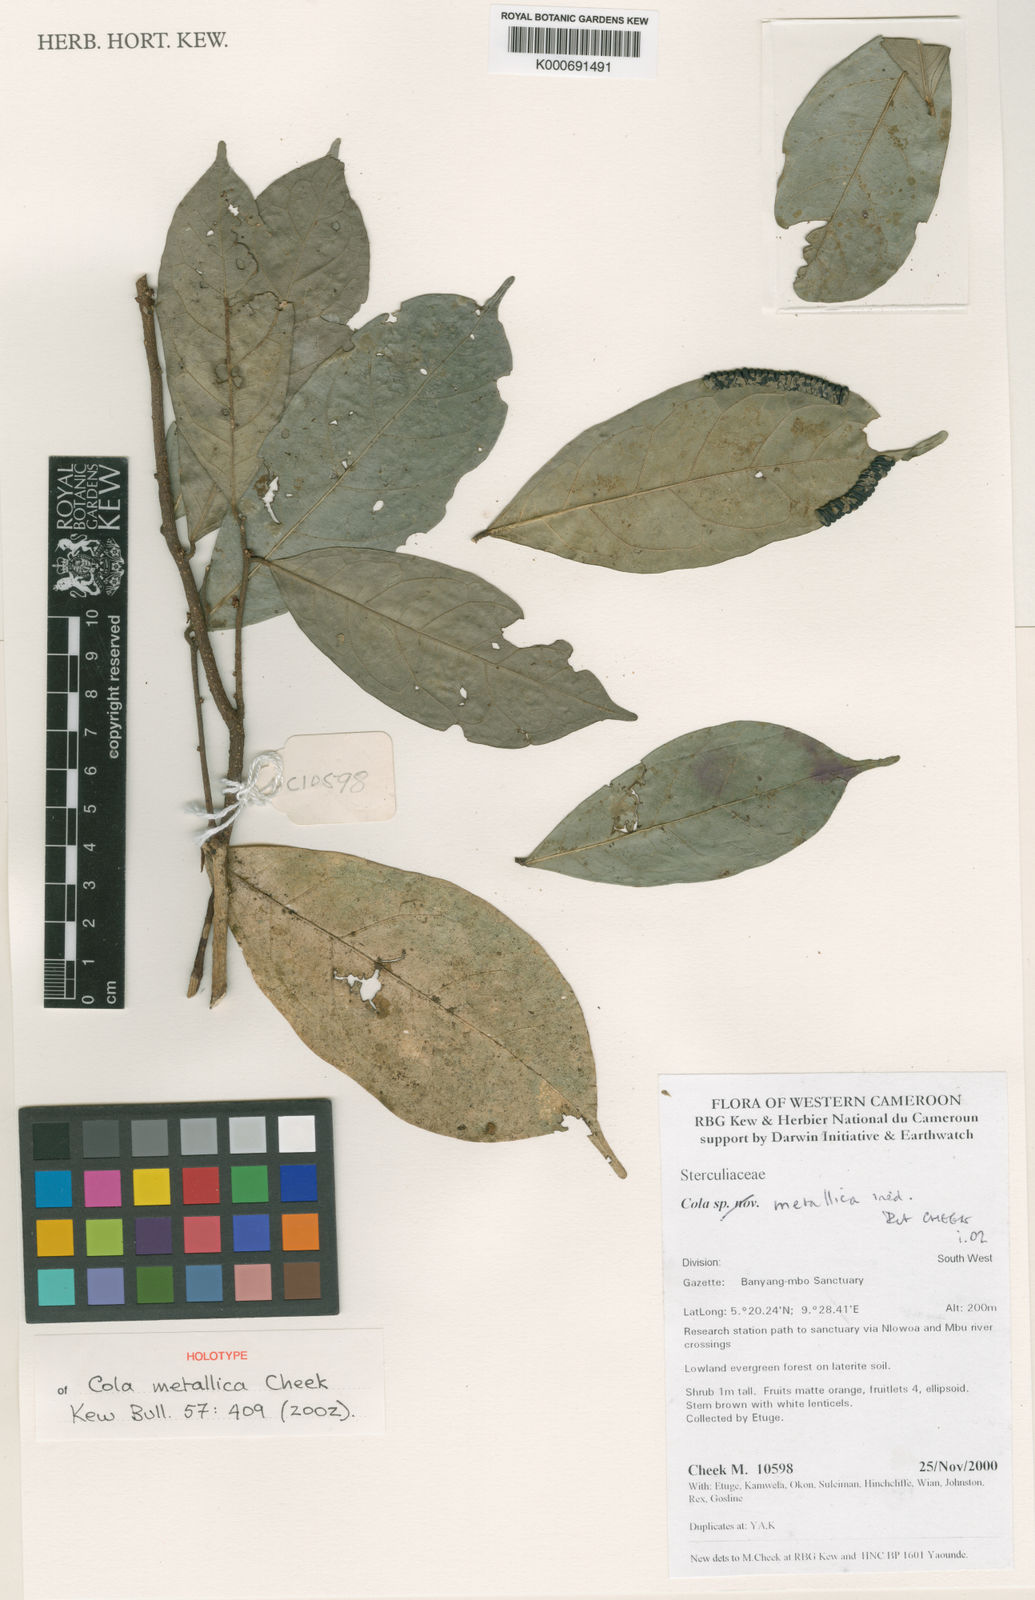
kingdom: Plantae
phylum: Tracheophyta
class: Magnoliopsida
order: Malvales
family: Malvaceae
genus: Cola
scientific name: Cola metallica
